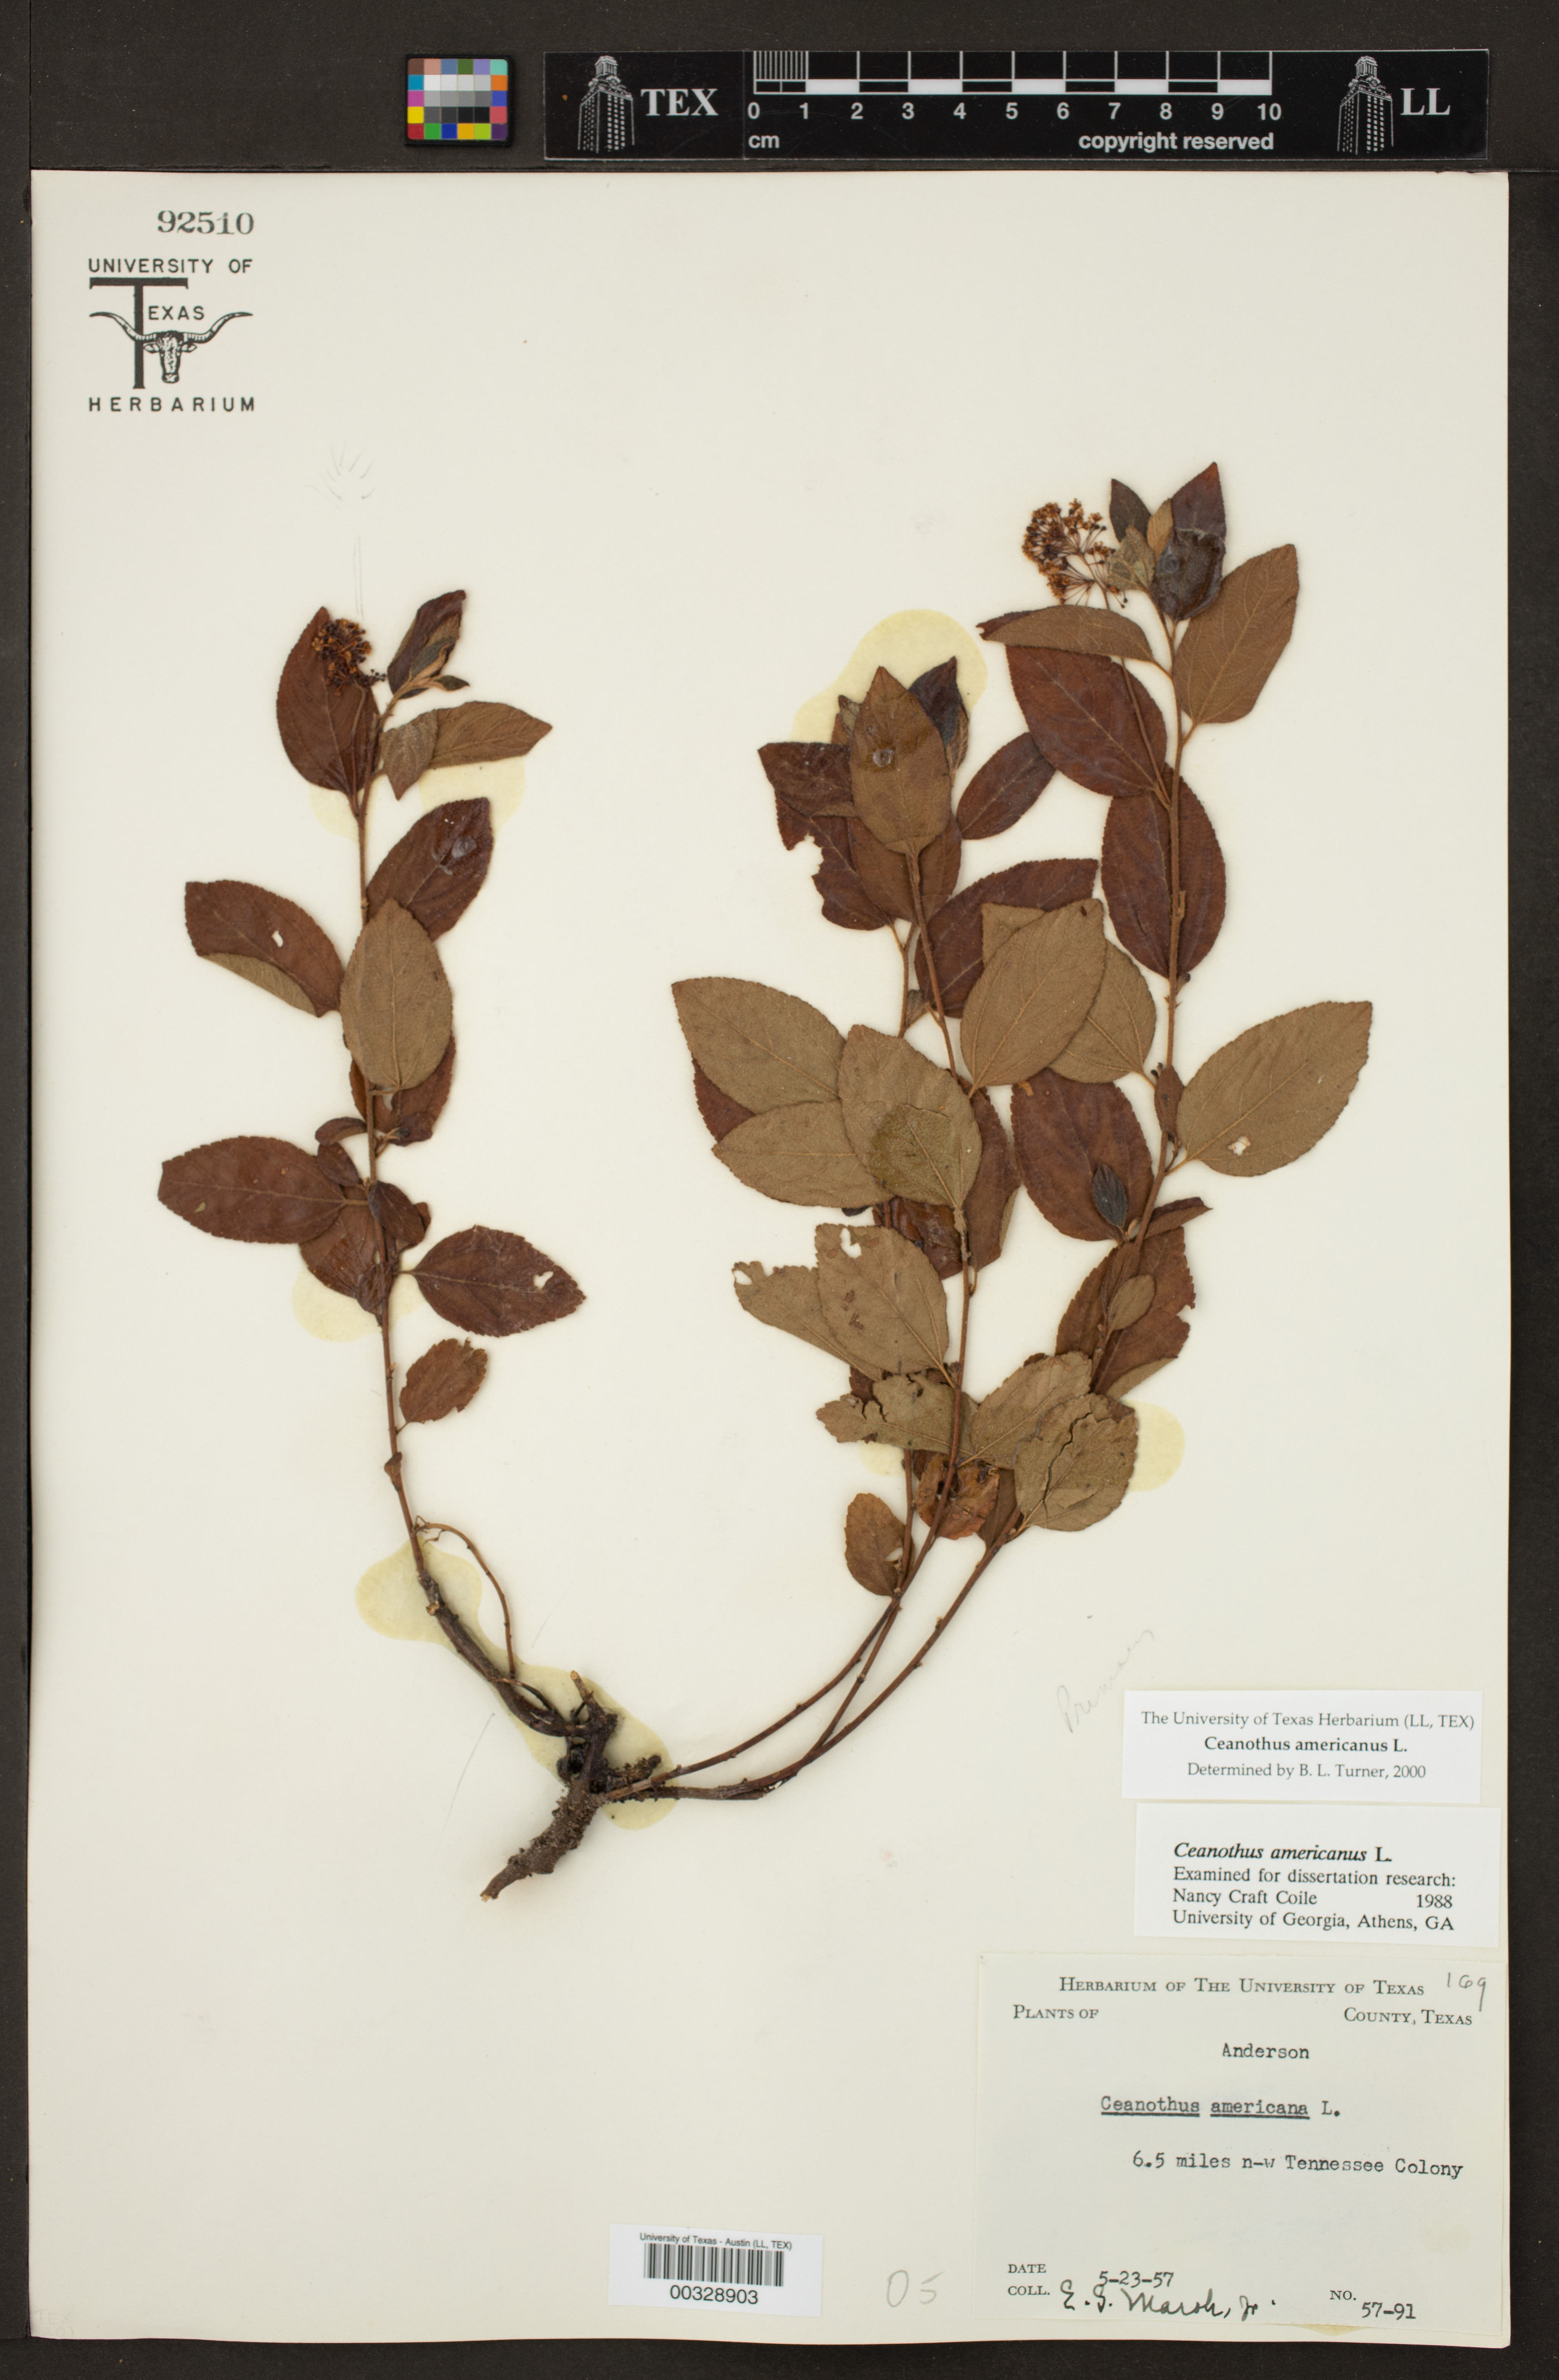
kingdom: Plantae
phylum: Tracheophyta
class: Magnoliopsida
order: Rosales
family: Rhamnaceae
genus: Ceanothus
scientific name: Ceanothus americanus
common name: Redroot
